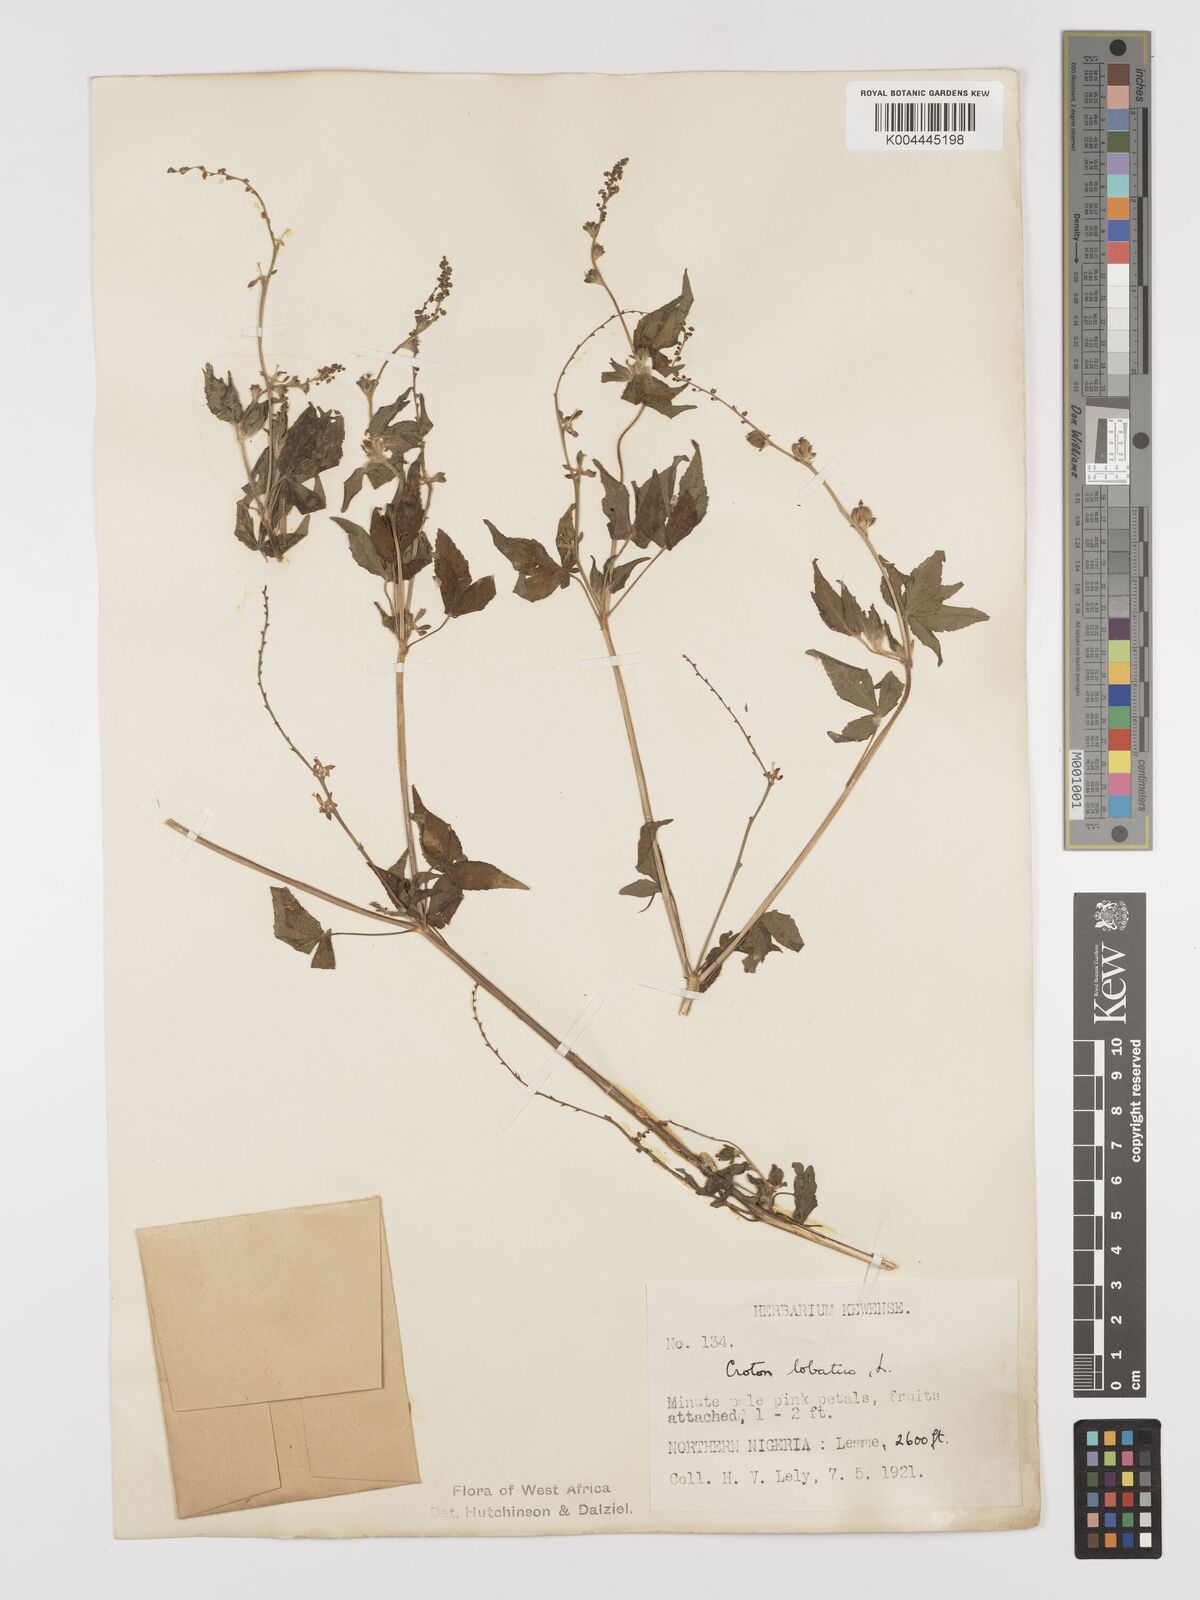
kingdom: Plantae
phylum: Tracheophyta
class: Magnoliopsida
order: Malpighiales
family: Euphorbiaceae
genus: Astraea
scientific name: Astraea lobata
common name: Lobed croton
